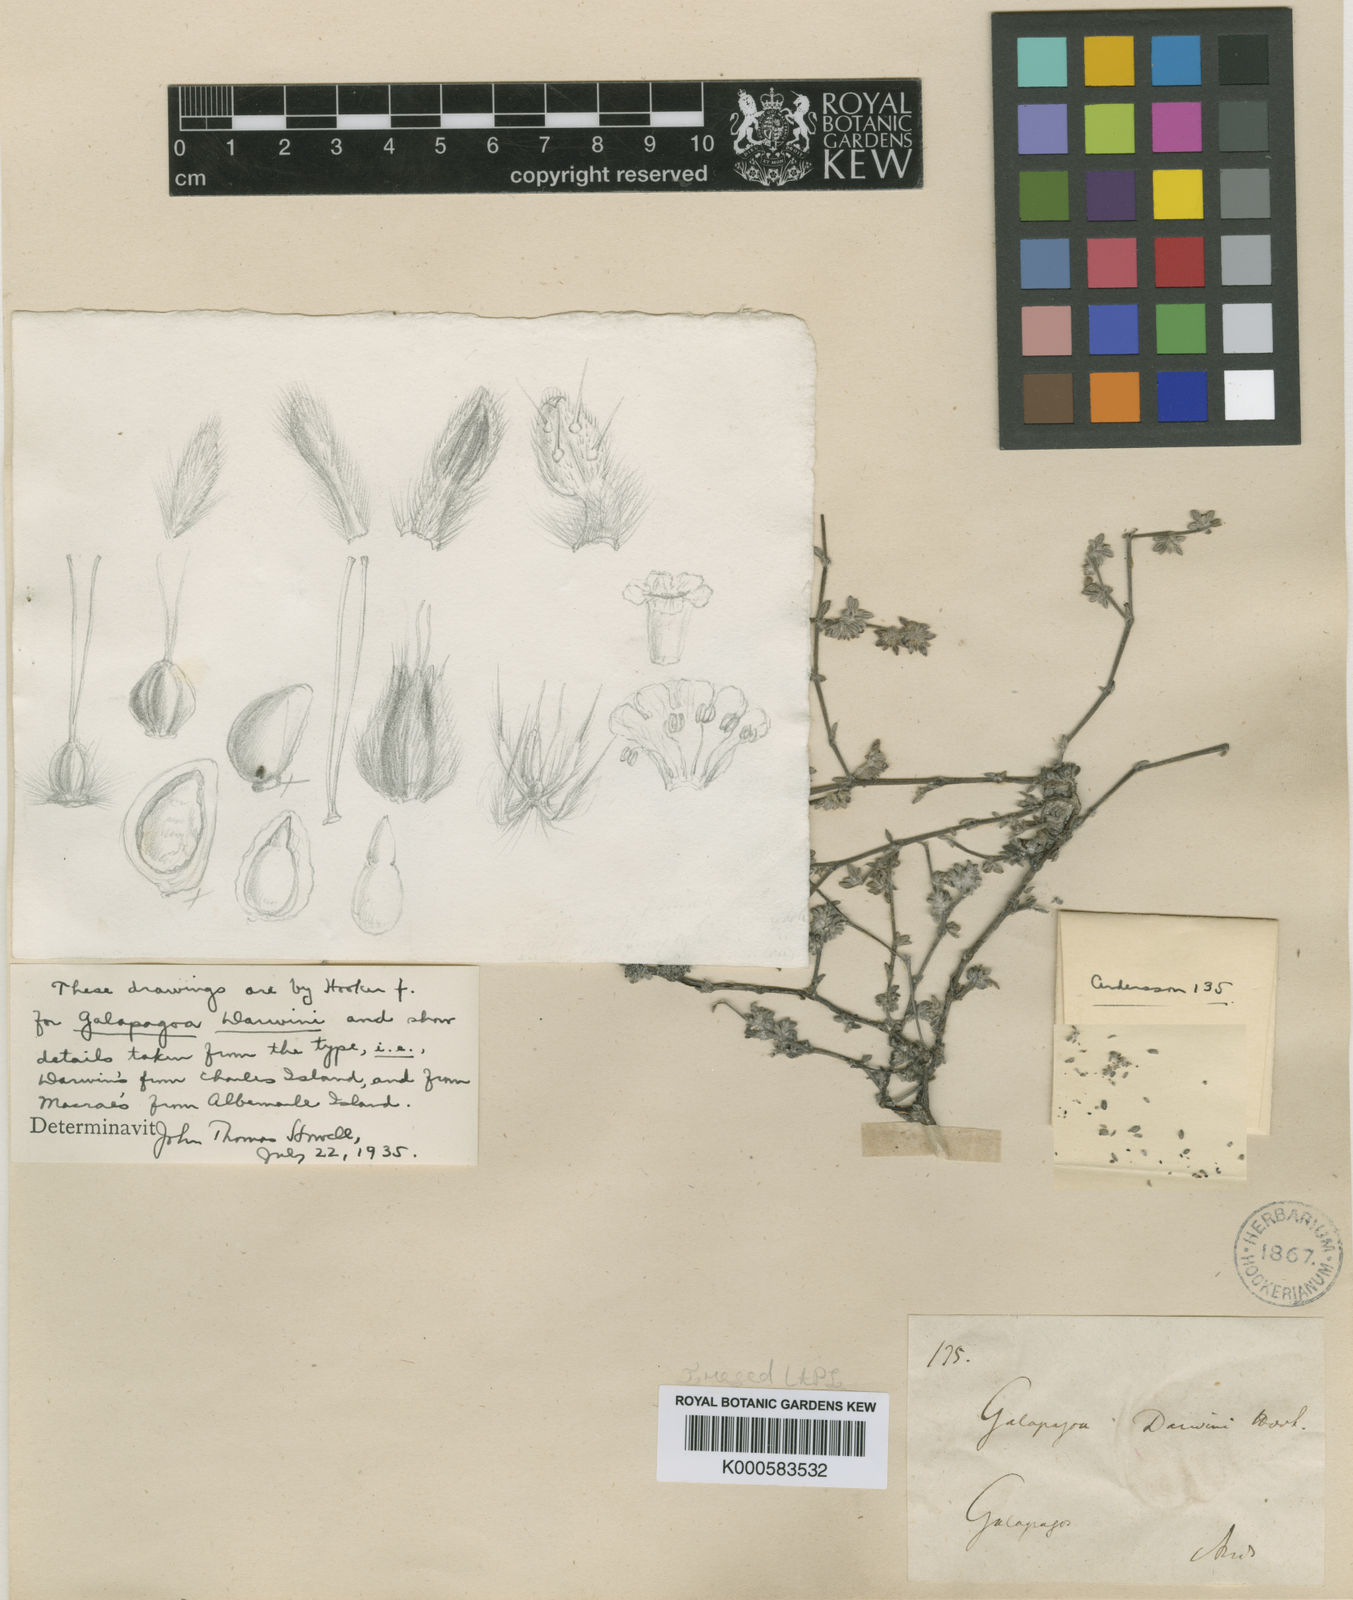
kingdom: Plantae
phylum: Tracheophyta
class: Magnoliopsida
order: Boraginales
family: Ehretiaceae
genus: Tiquilia
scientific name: Tiquilia darwinii
